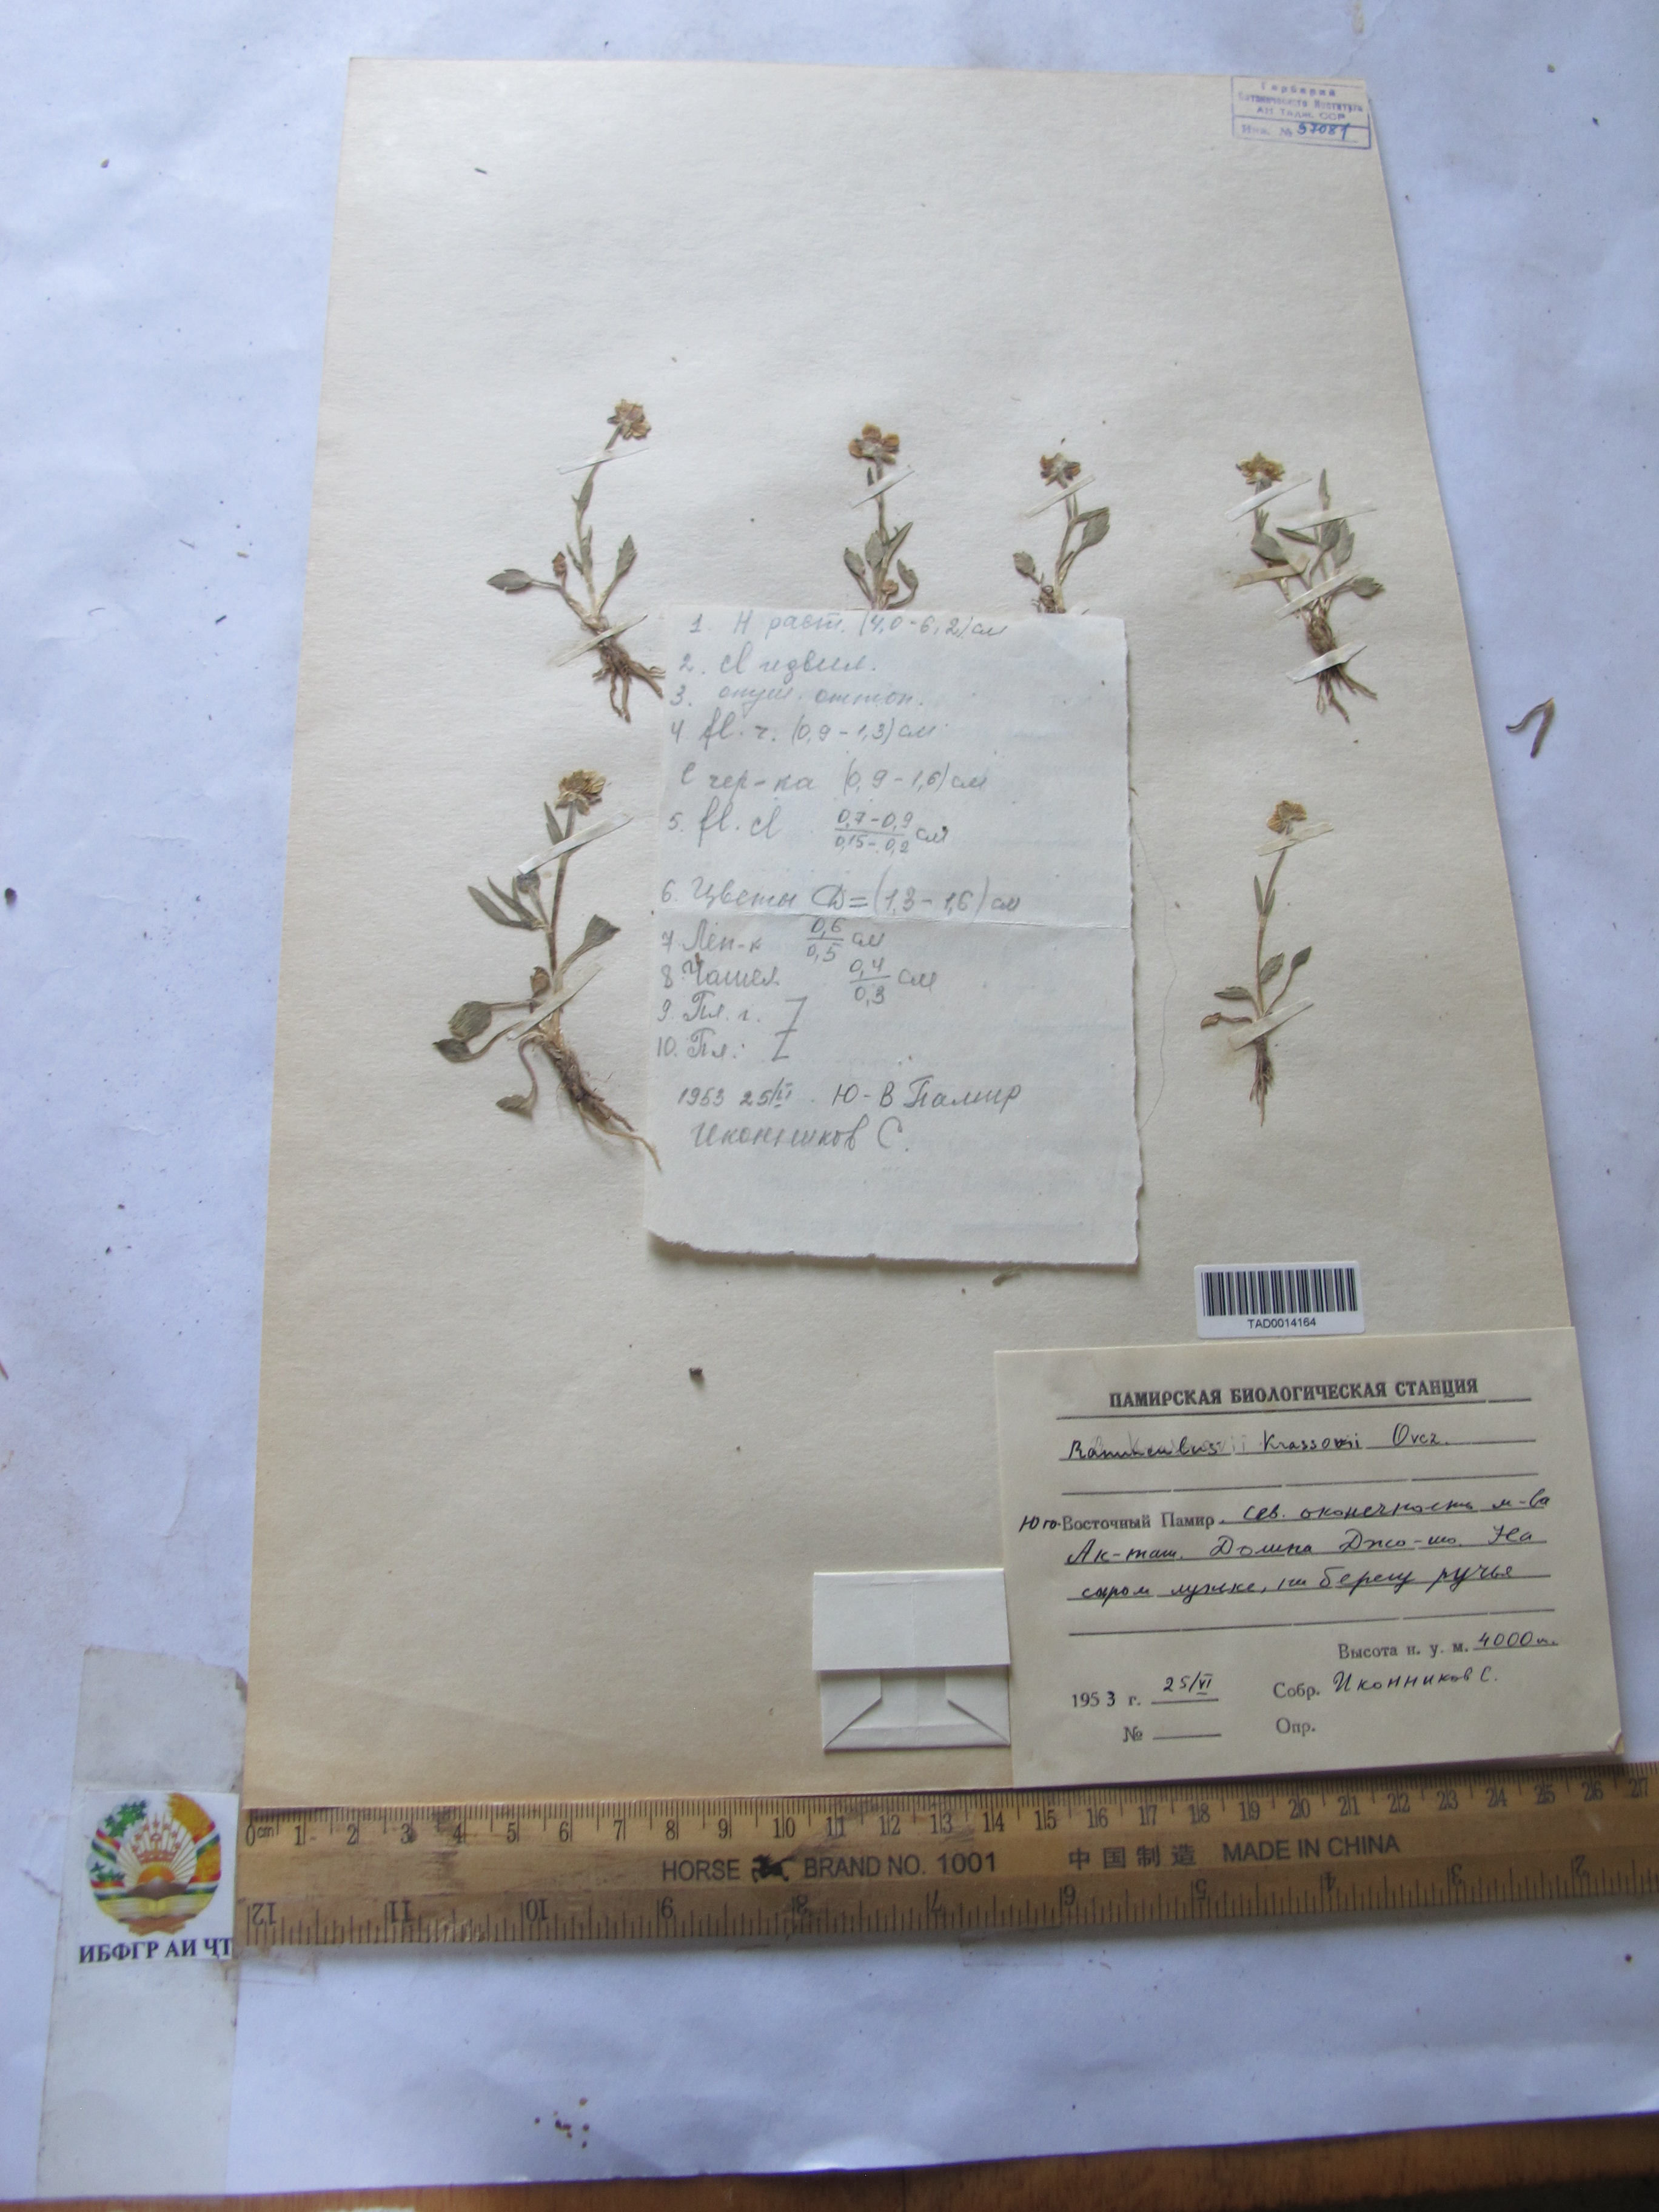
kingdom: Plantae
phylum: Tracheophyta
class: Magnoliopsida
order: Ranunculales
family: Ranunculaceae
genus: Ranunculus
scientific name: Ranunculus krassnovii
